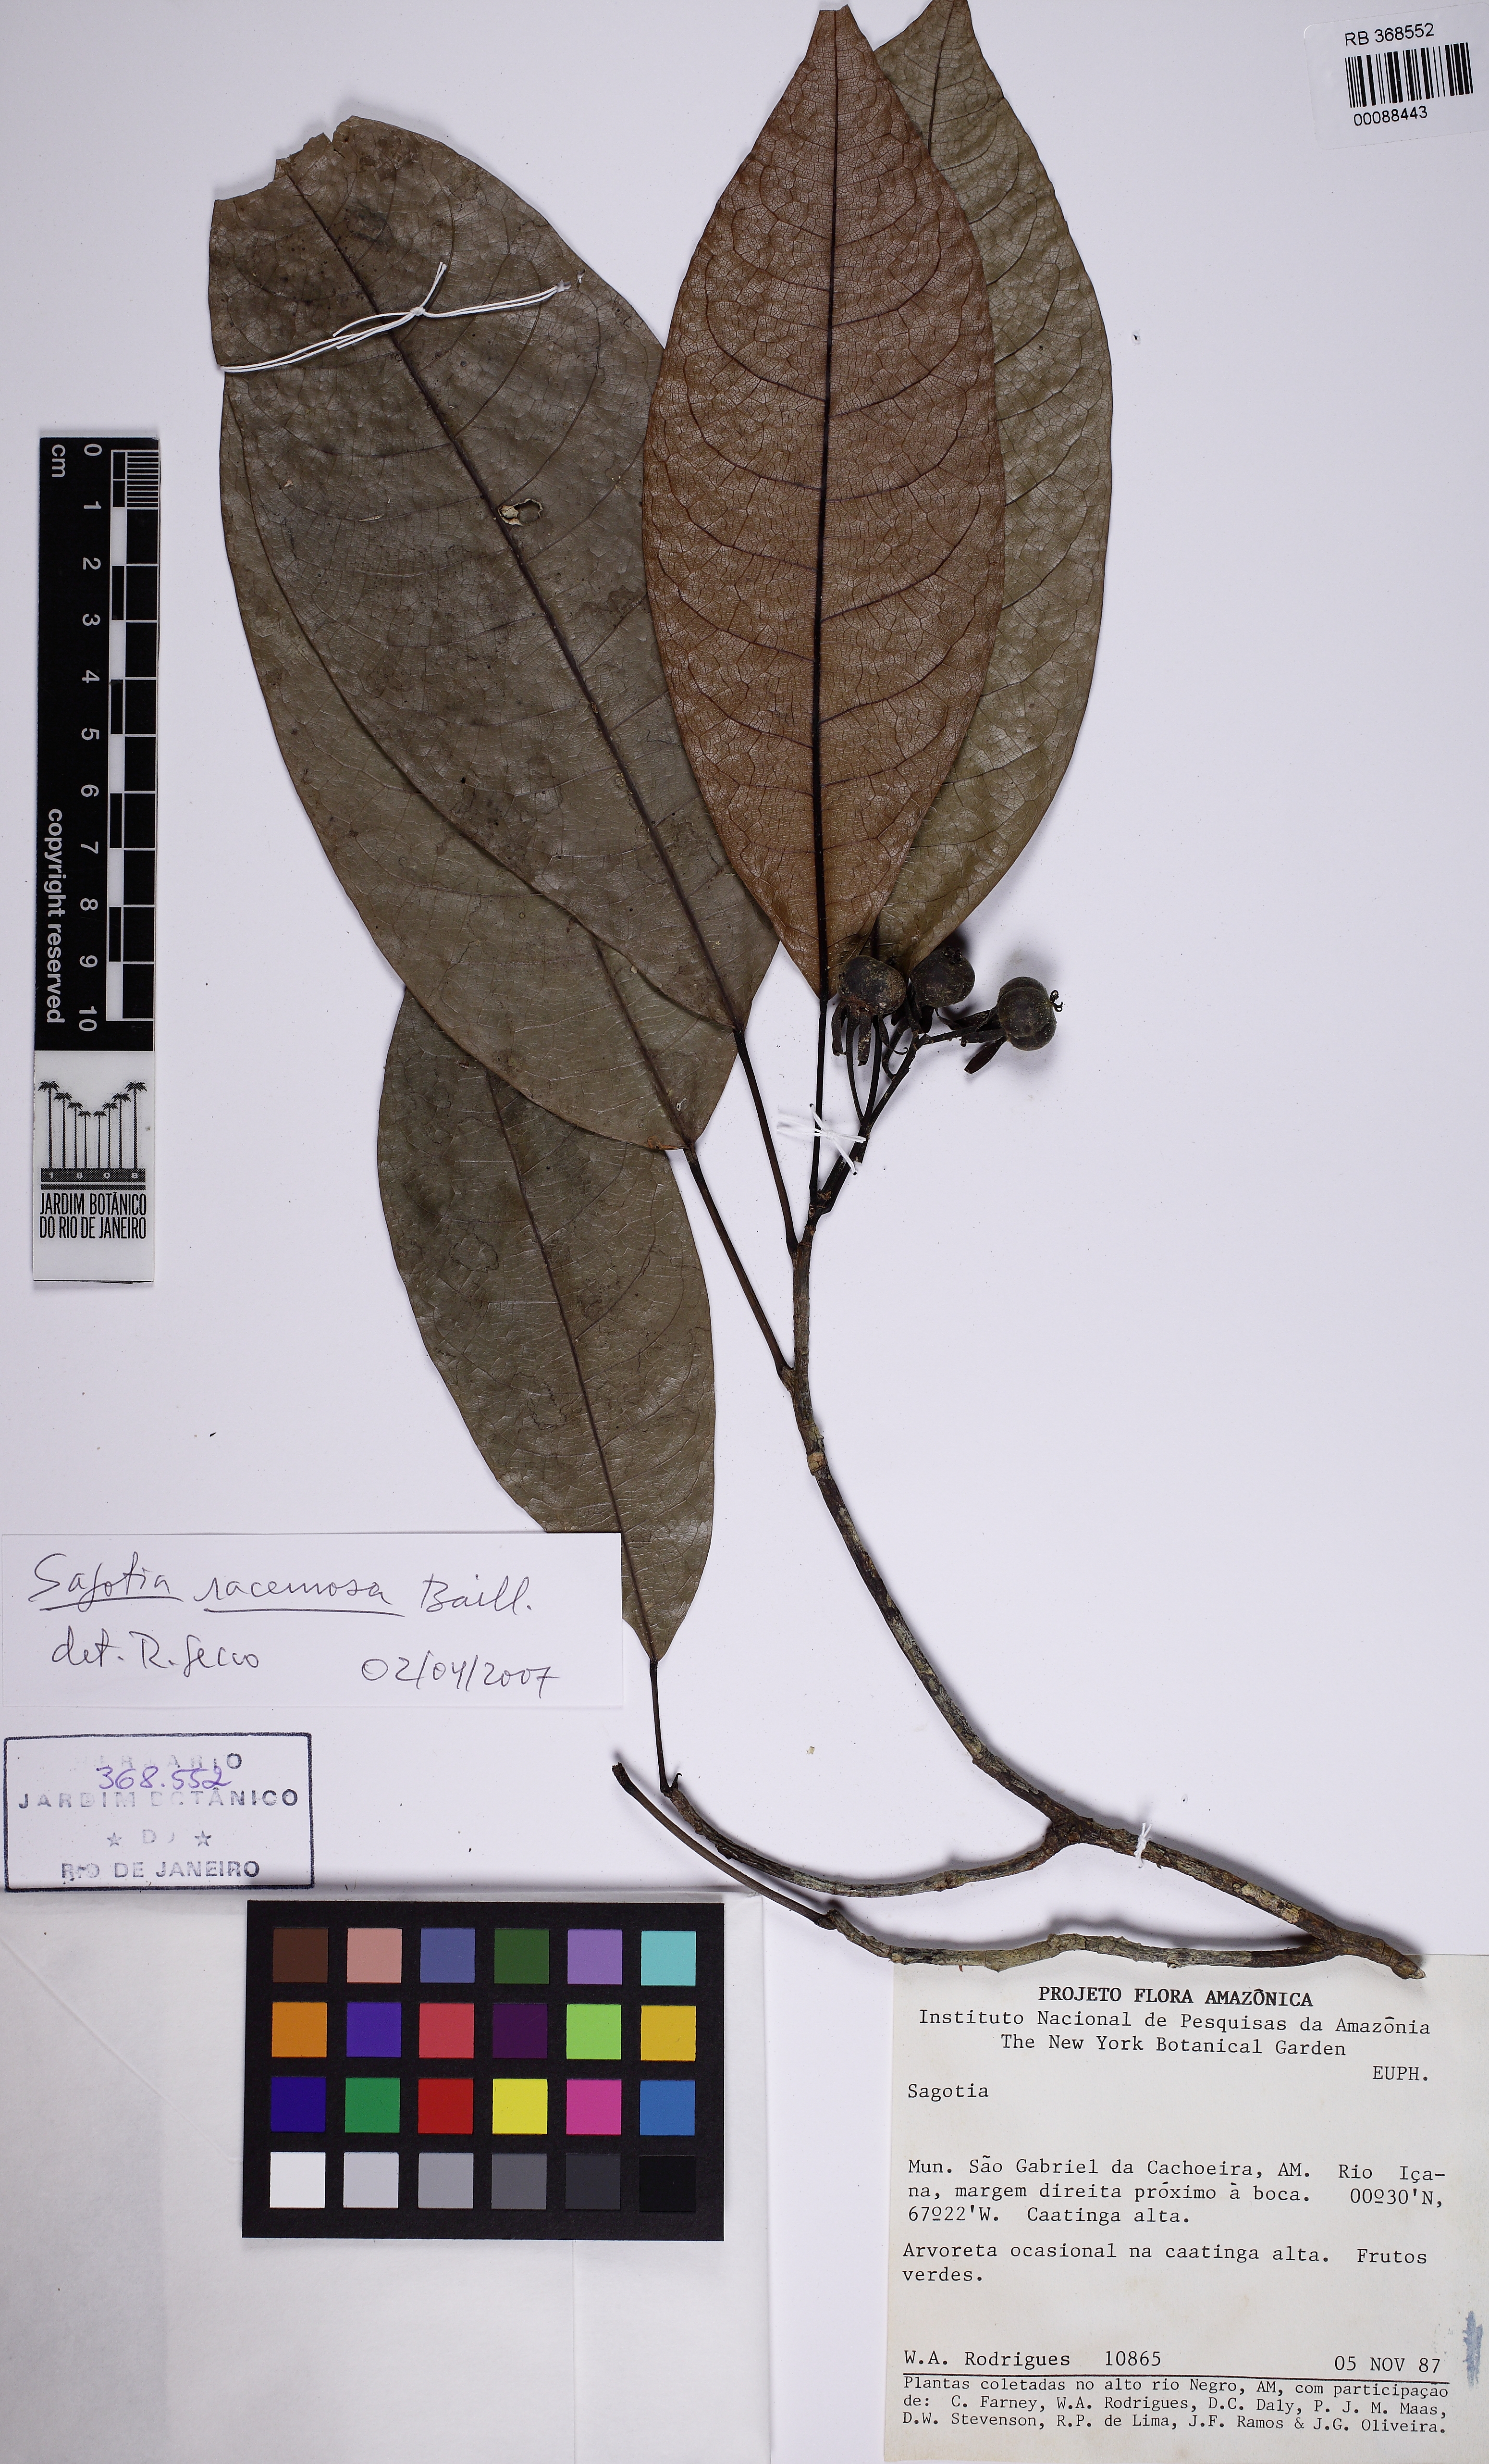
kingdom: Plantae
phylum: Tracheophyta
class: Magnoliopsida
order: Malpighiales
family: Euphorbiaceae
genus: Sagotia
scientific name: Sagotia racemosa
